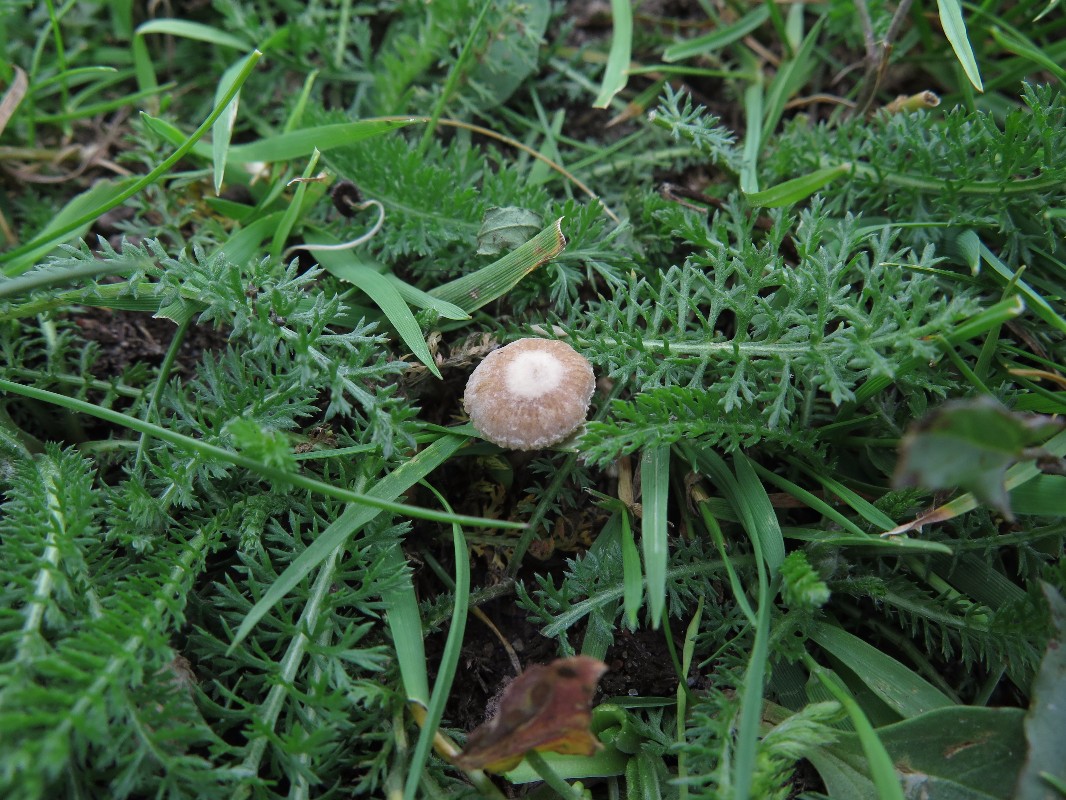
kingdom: Fungi
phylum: Basidiomycota
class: Agaricomycetes
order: Agaricales
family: Tubariaceae
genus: Tubaria
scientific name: Tubaria conspersa
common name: bleg fnughat
